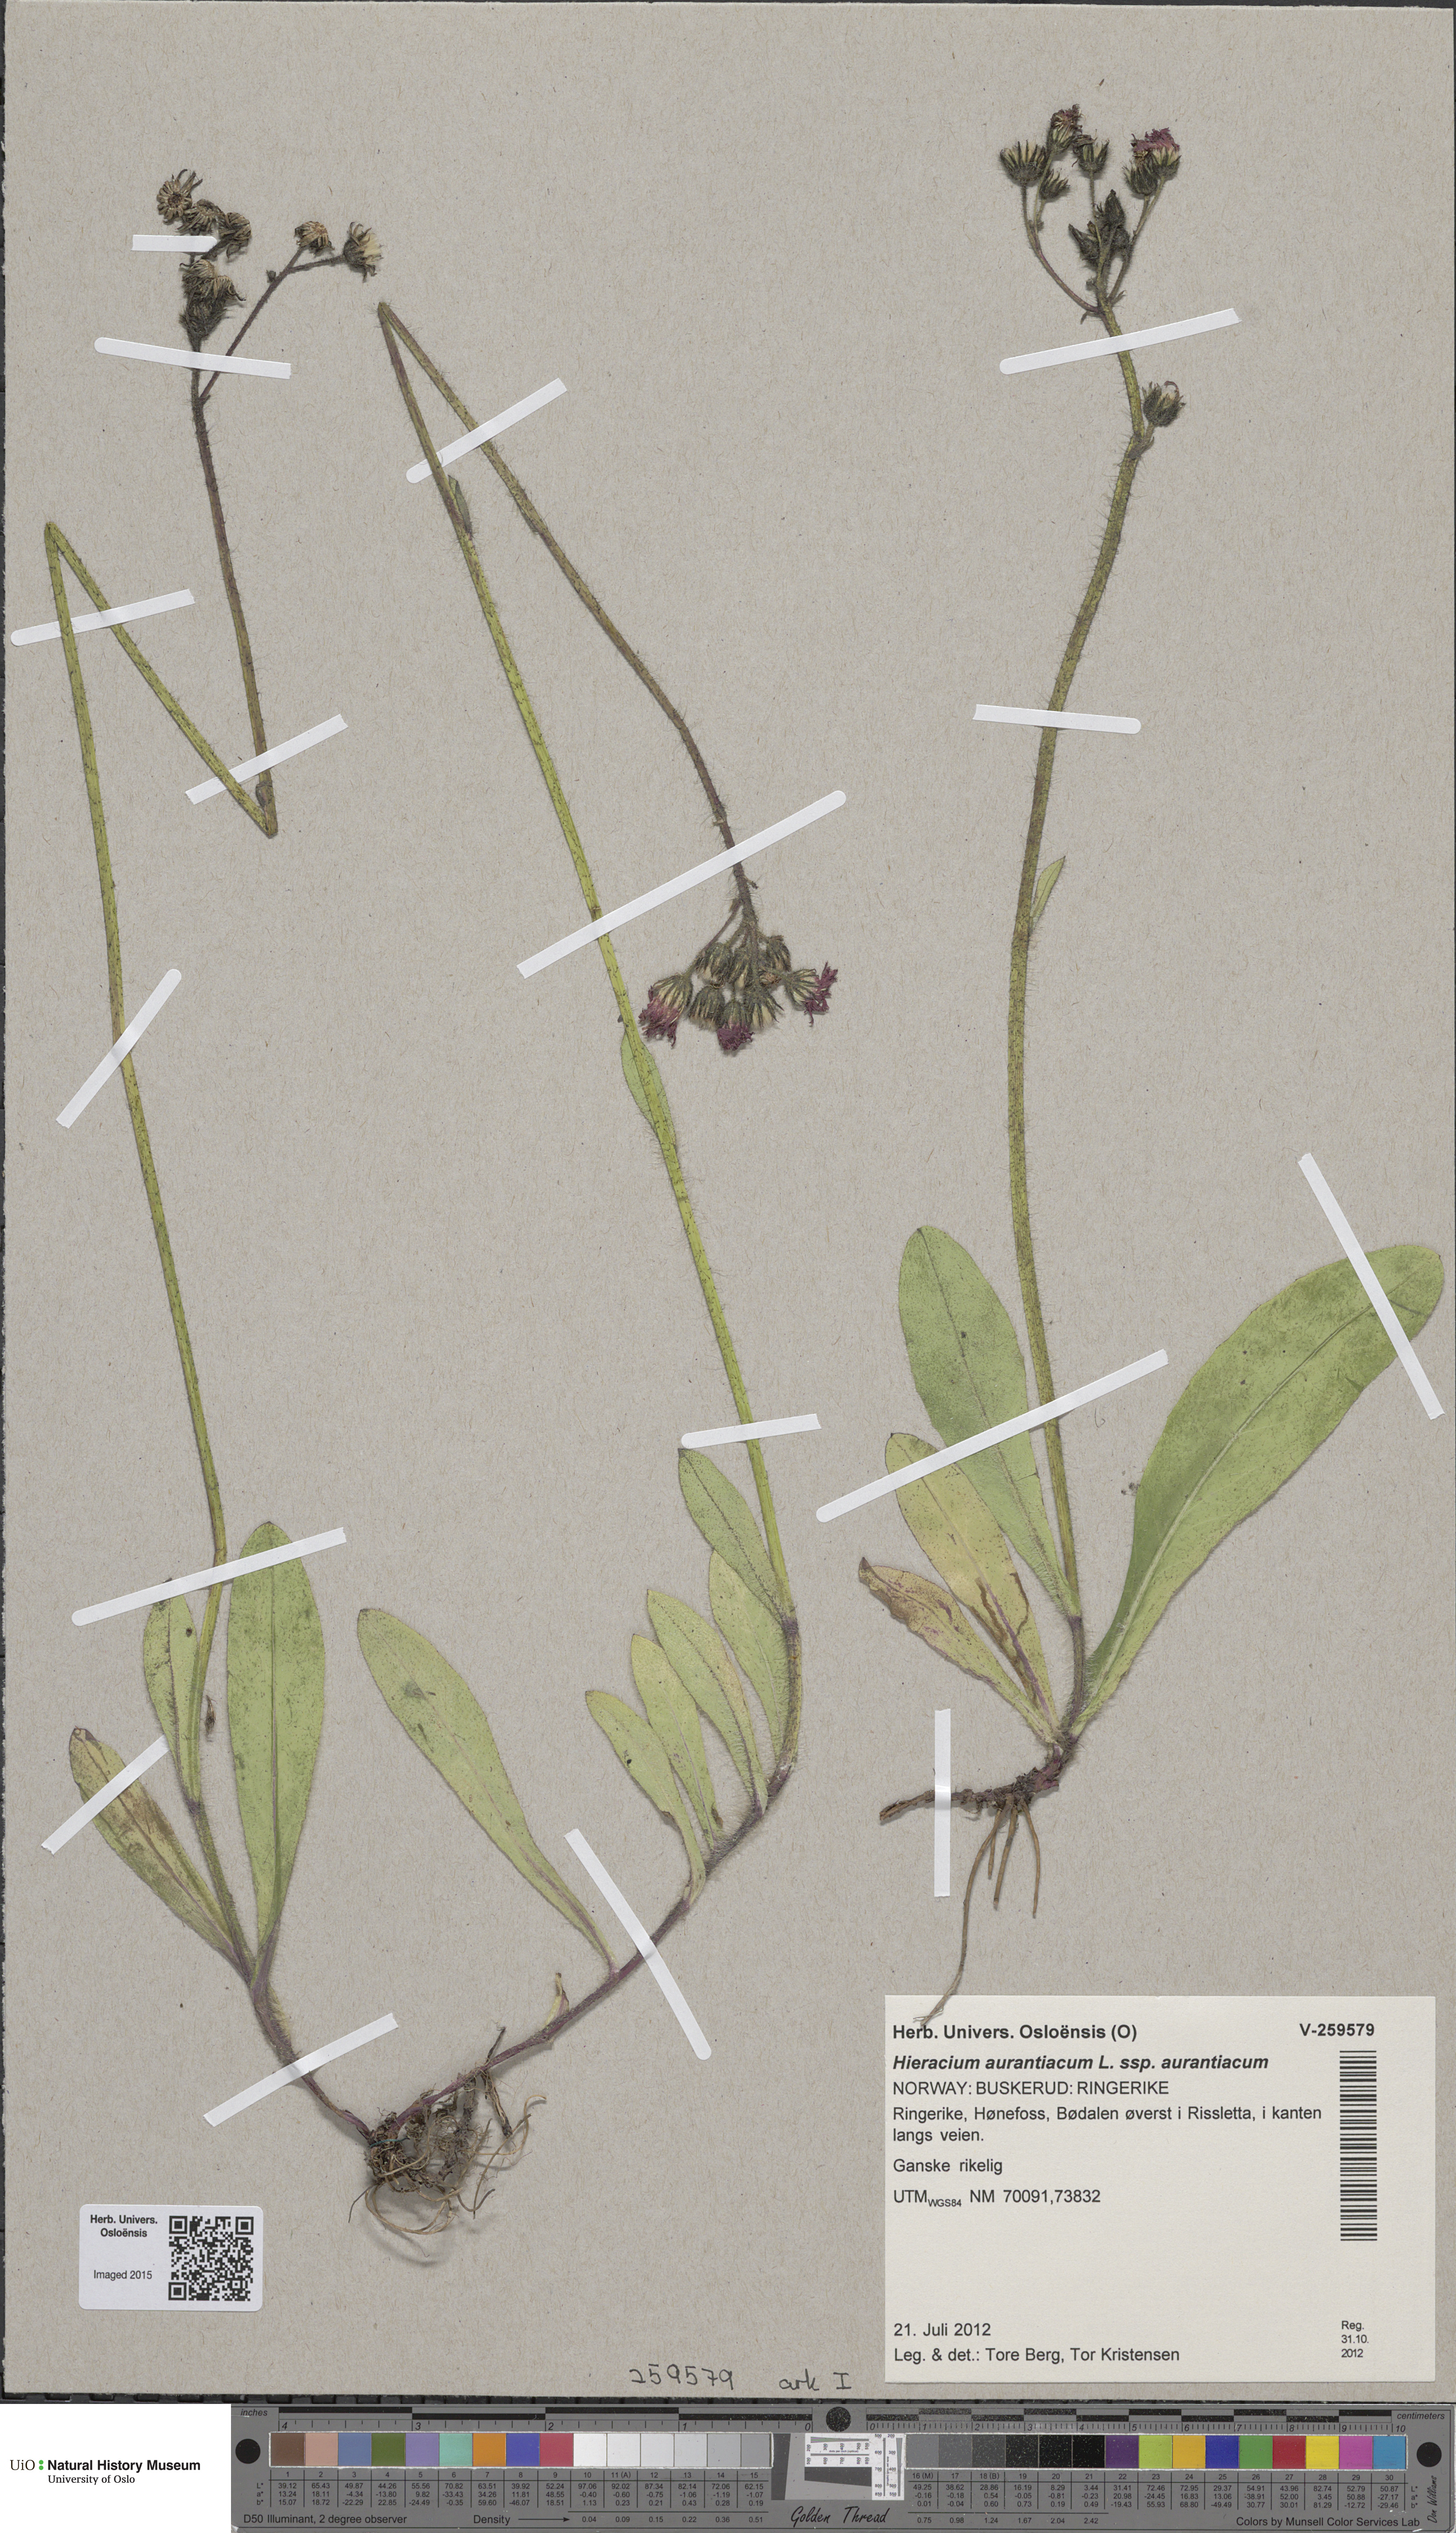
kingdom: Plantae
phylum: Tracheophyta
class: Magnoliopsida
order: Asterales
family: Asteraceae
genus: Pilosella
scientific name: Pilosella aurantiaca
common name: Fox-and-cubs
